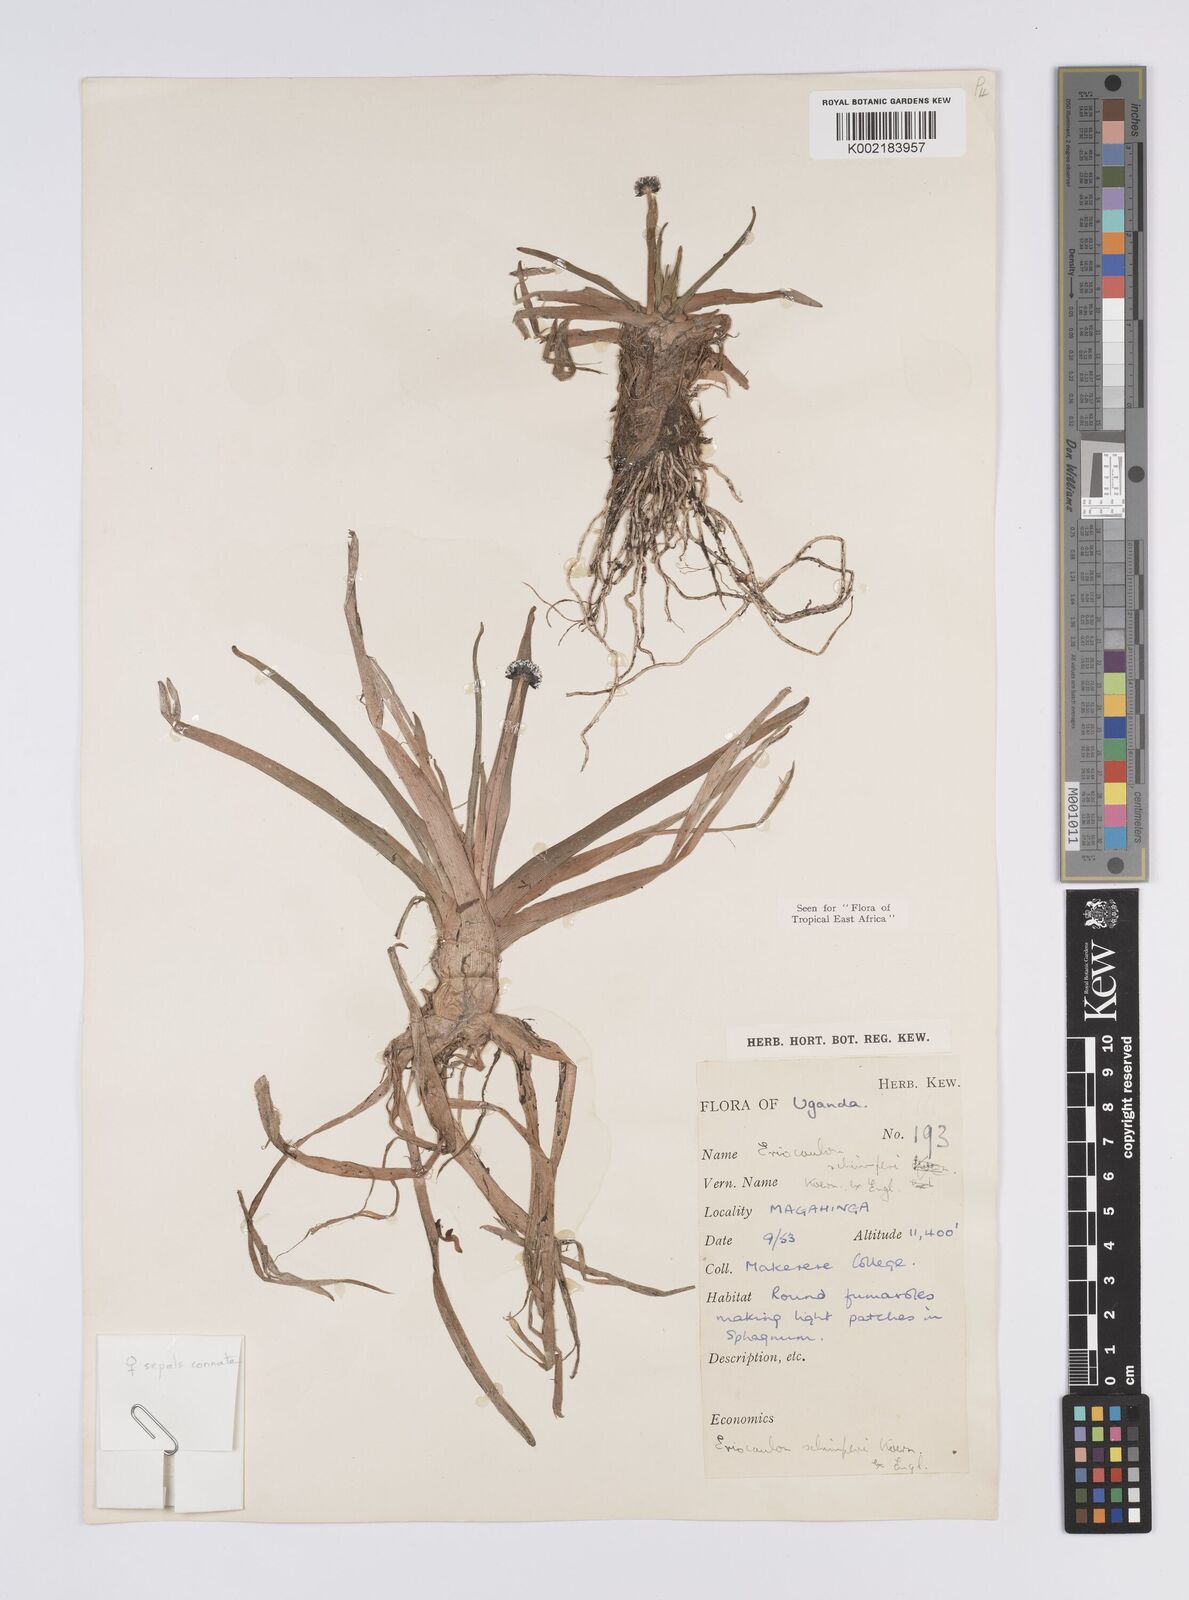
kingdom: Plantae
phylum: Tracheophyta
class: Liliopsida
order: Poales
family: Eriocaulaceae
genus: Eriocaulon
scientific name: Eriocaulon schimperi
